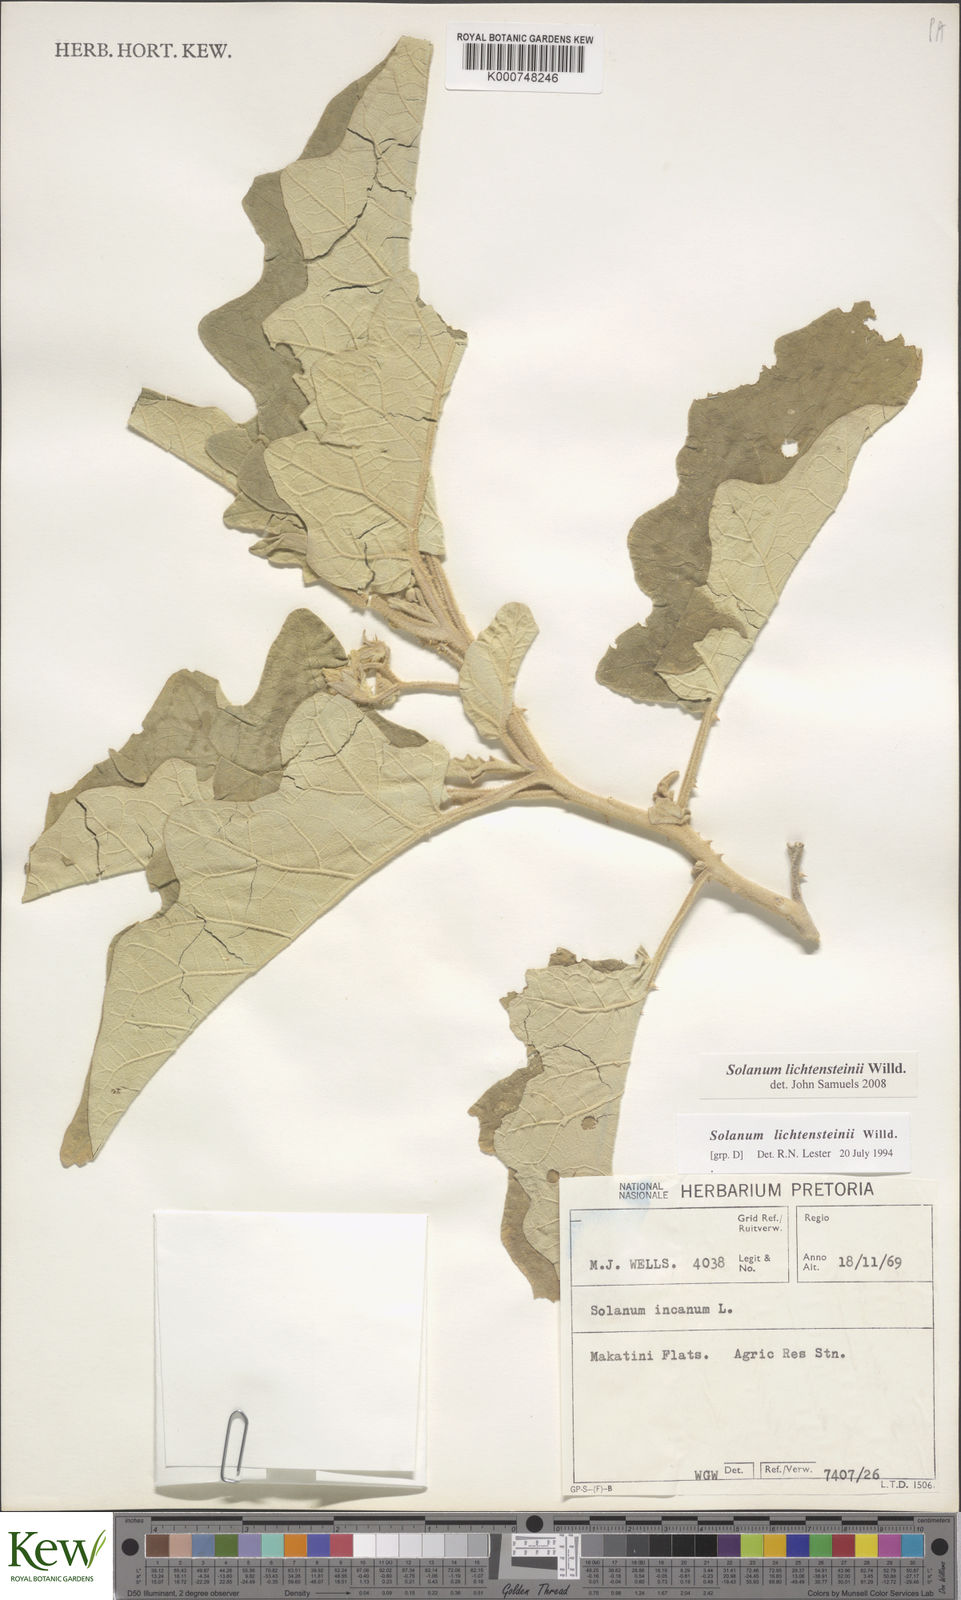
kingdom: Plantae
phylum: Tracheophyta
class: Magnoliopsida
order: Solanales
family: Solanaceae
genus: Solanum
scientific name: Solanum lichtensteinii
